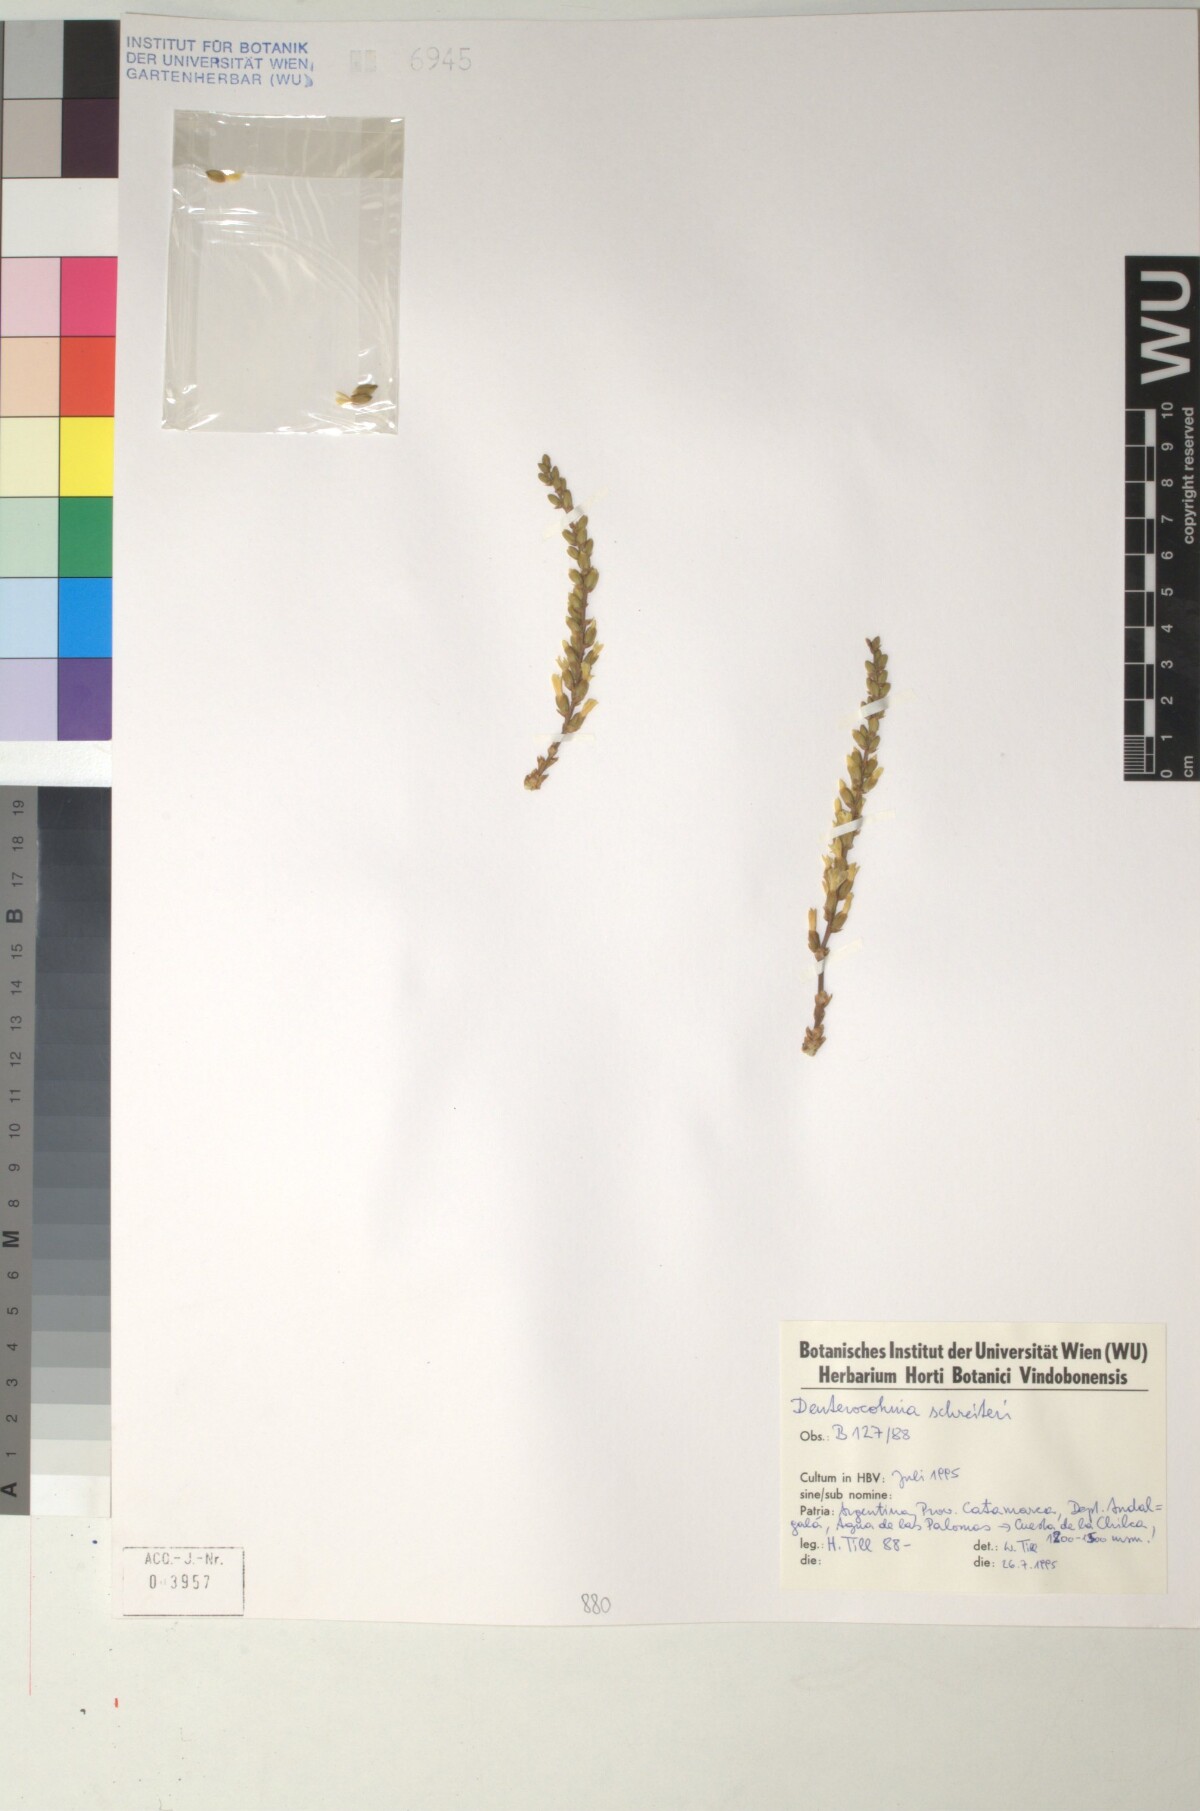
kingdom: Plantae
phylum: Tracheophyta
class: Liliopsida
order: Poales
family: Bromeliaceae
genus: Deuterocohnia
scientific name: Deuterocohnia schreiteri
